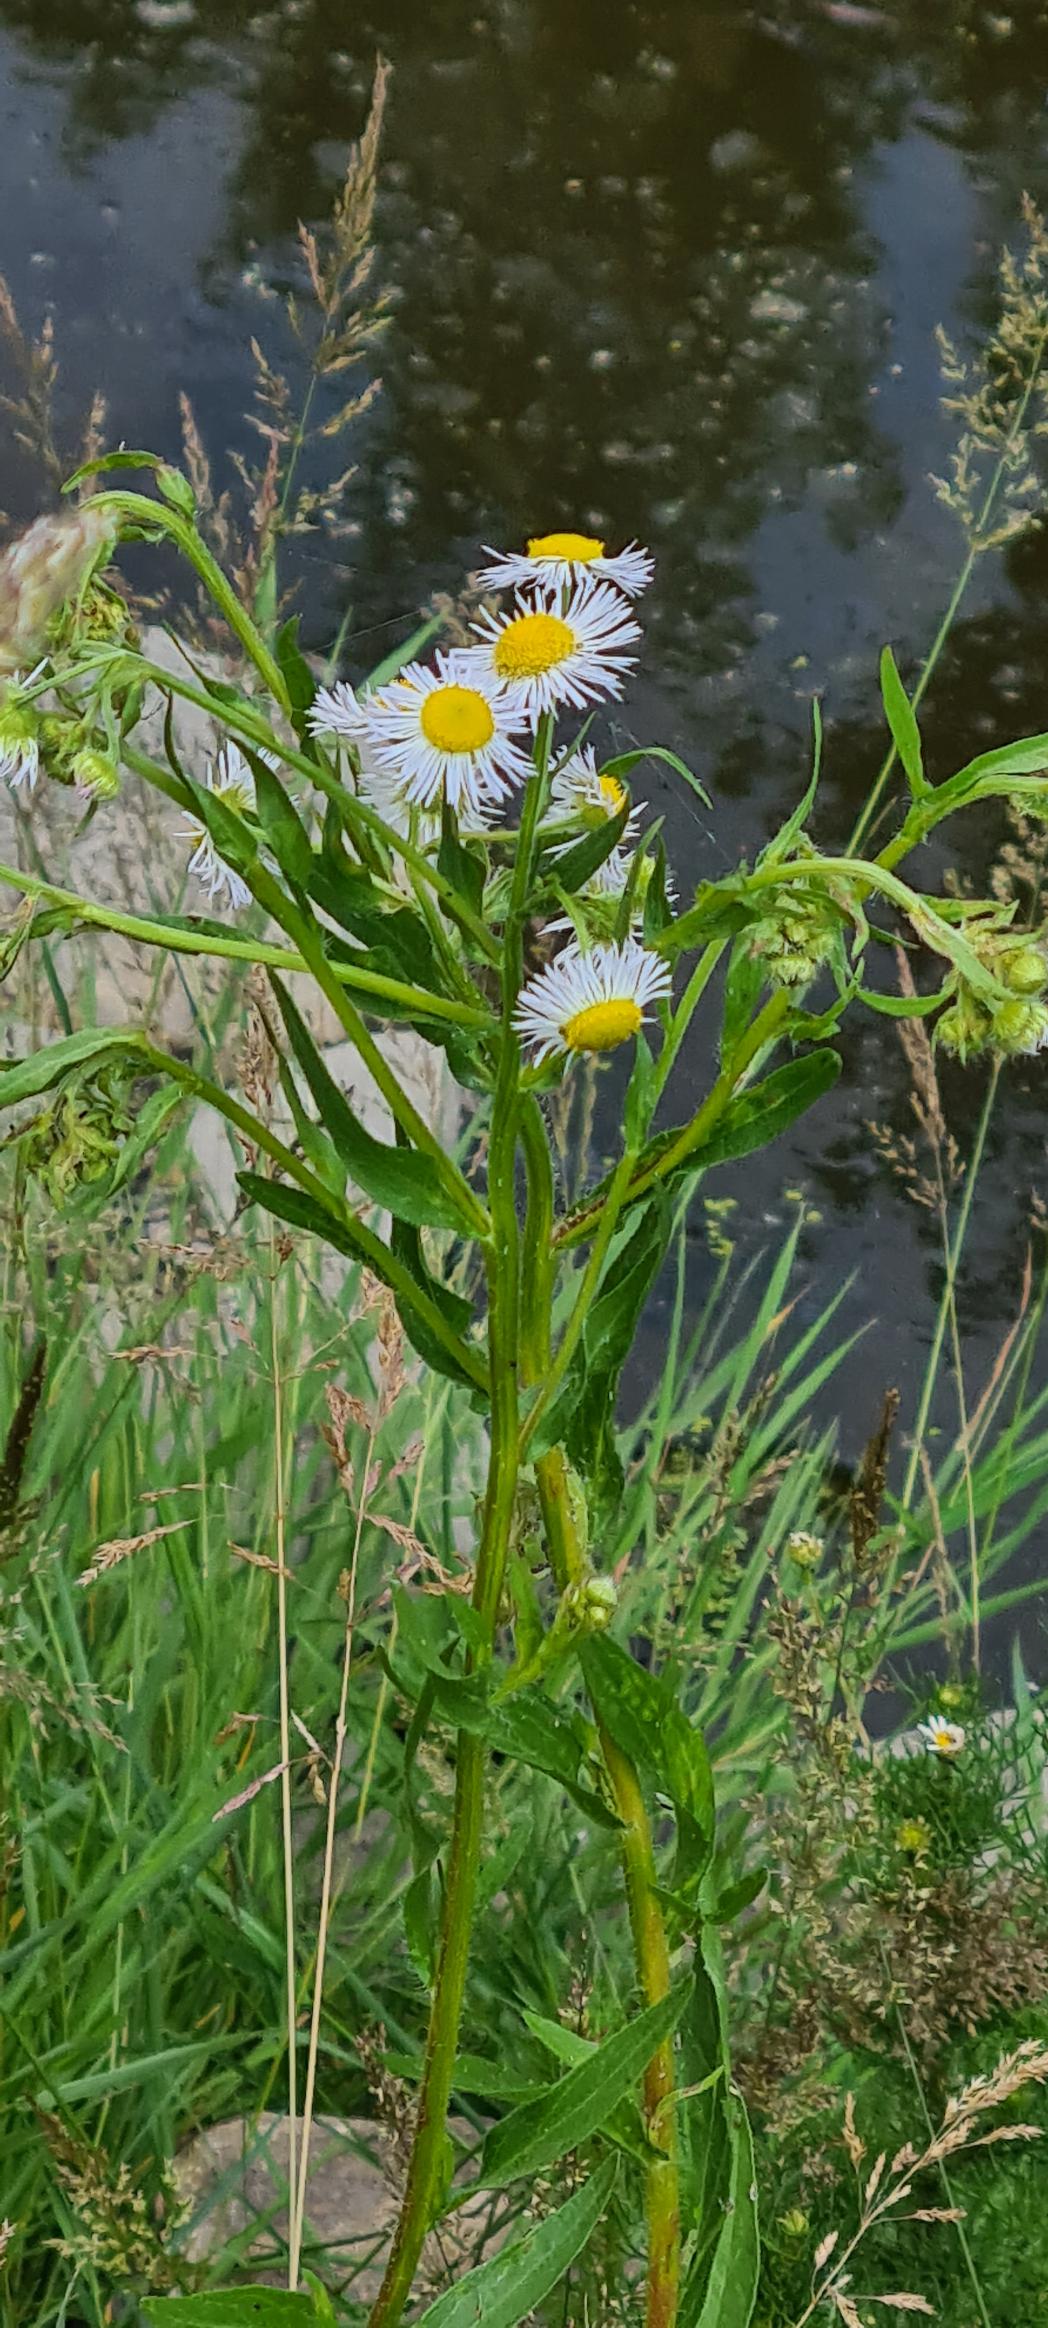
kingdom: Plantae
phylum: Tracheophyta
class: Magnoliopsida
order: Asterales
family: Asteraceae
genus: Erigeron
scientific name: Erigeron annuus
